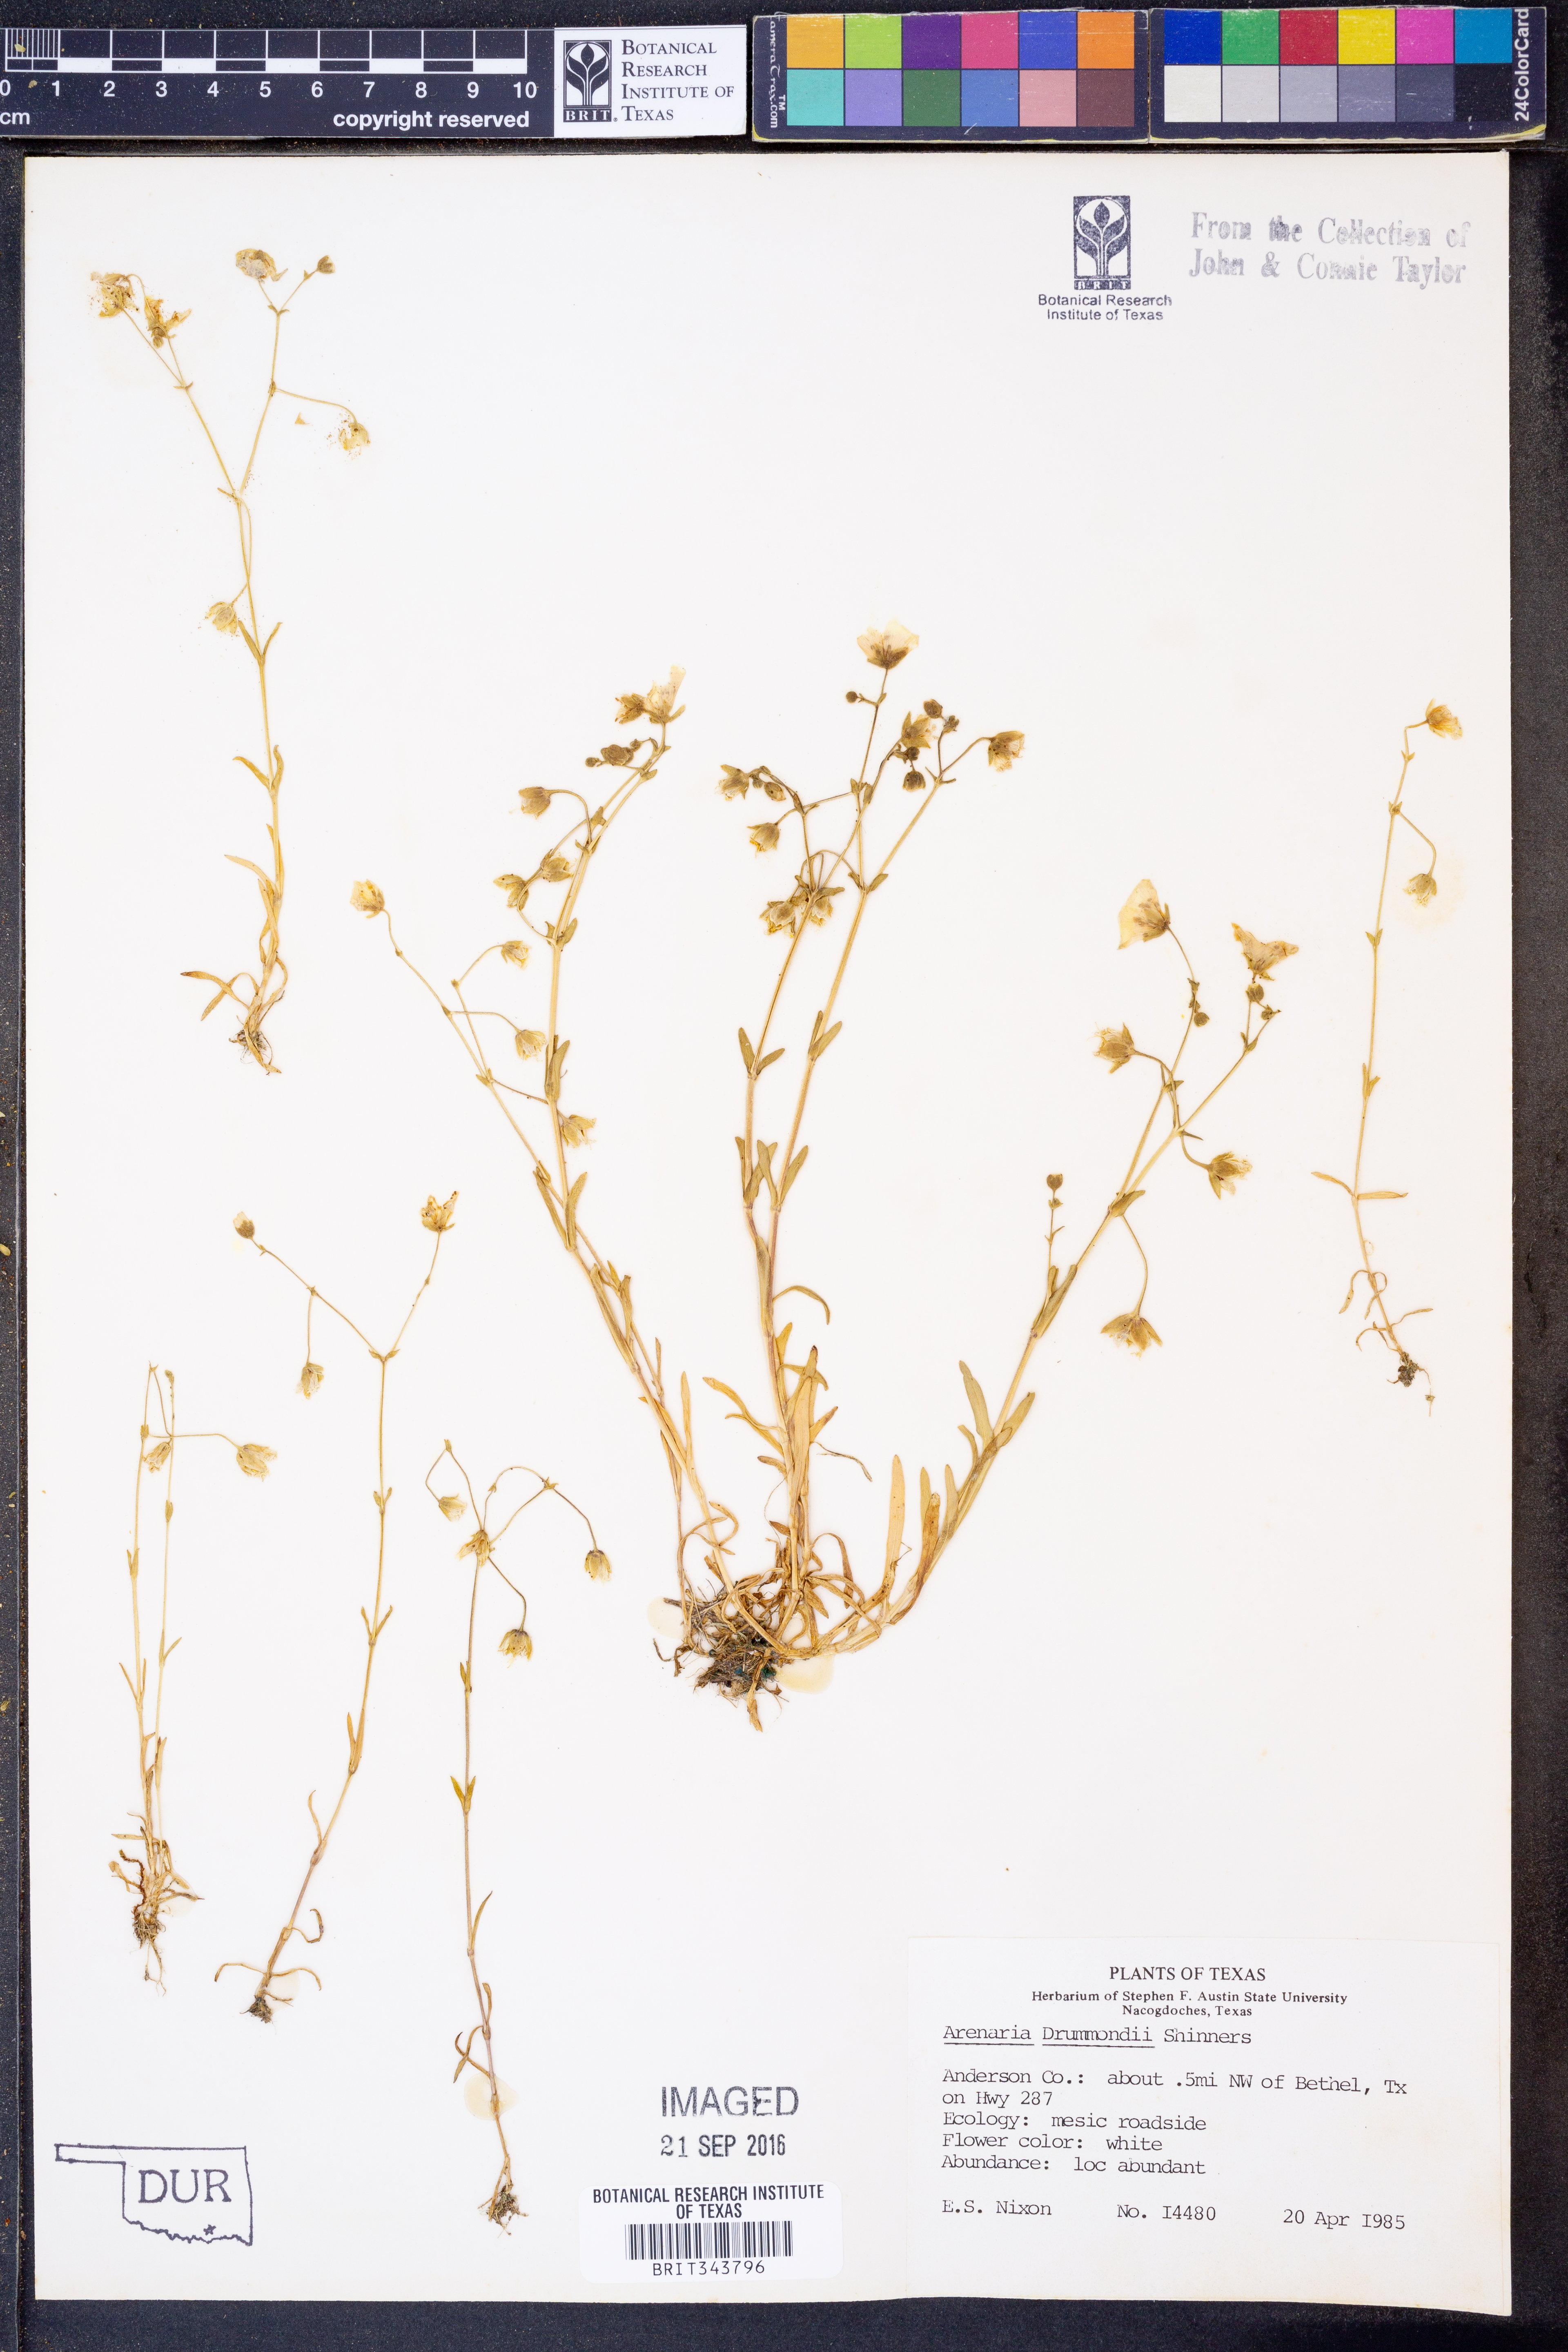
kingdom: Plantae
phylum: Tracheophyta
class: Magnoliopsida
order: Caryophyllales
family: Caryophyllaceae
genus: Geocarpon
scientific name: Geocarpon nuttallii
